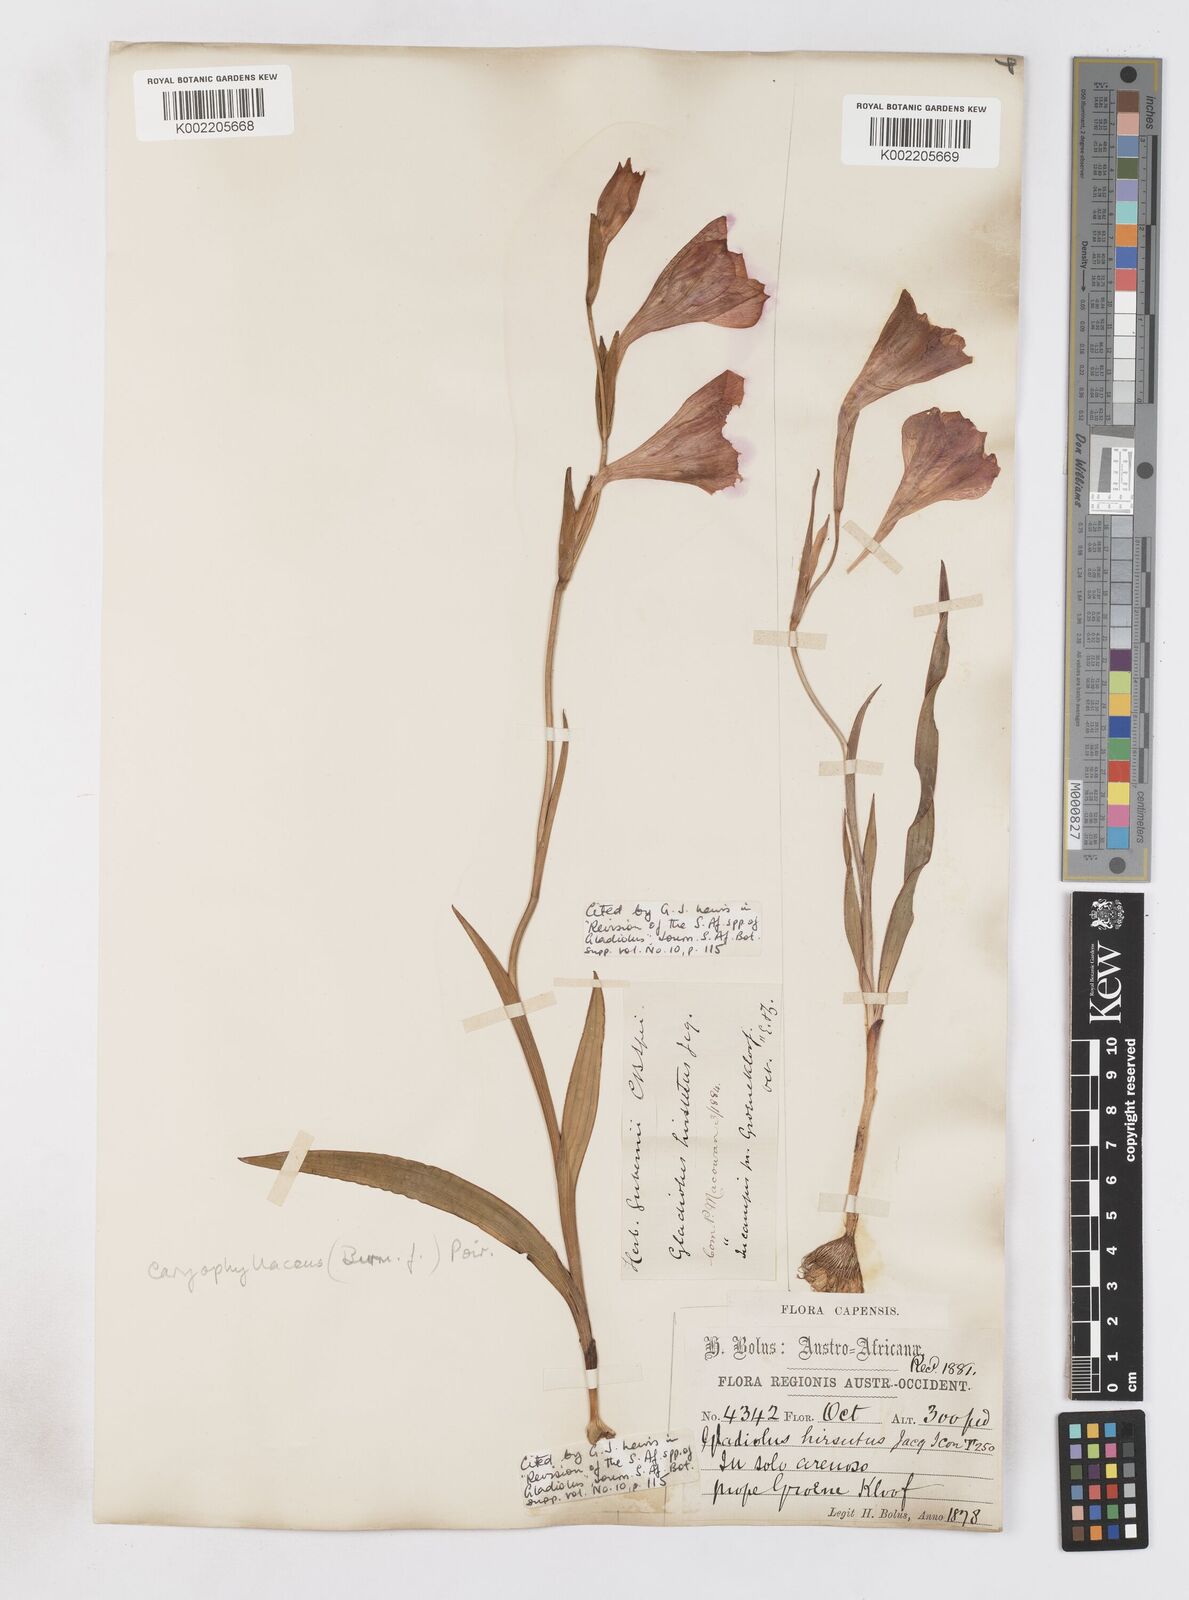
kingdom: Plantae
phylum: Tracheophyta
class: Liliopsida
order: Asparagales
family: Iridaceae
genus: Gladiolus
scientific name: Gladiolus caryophyllaceus
